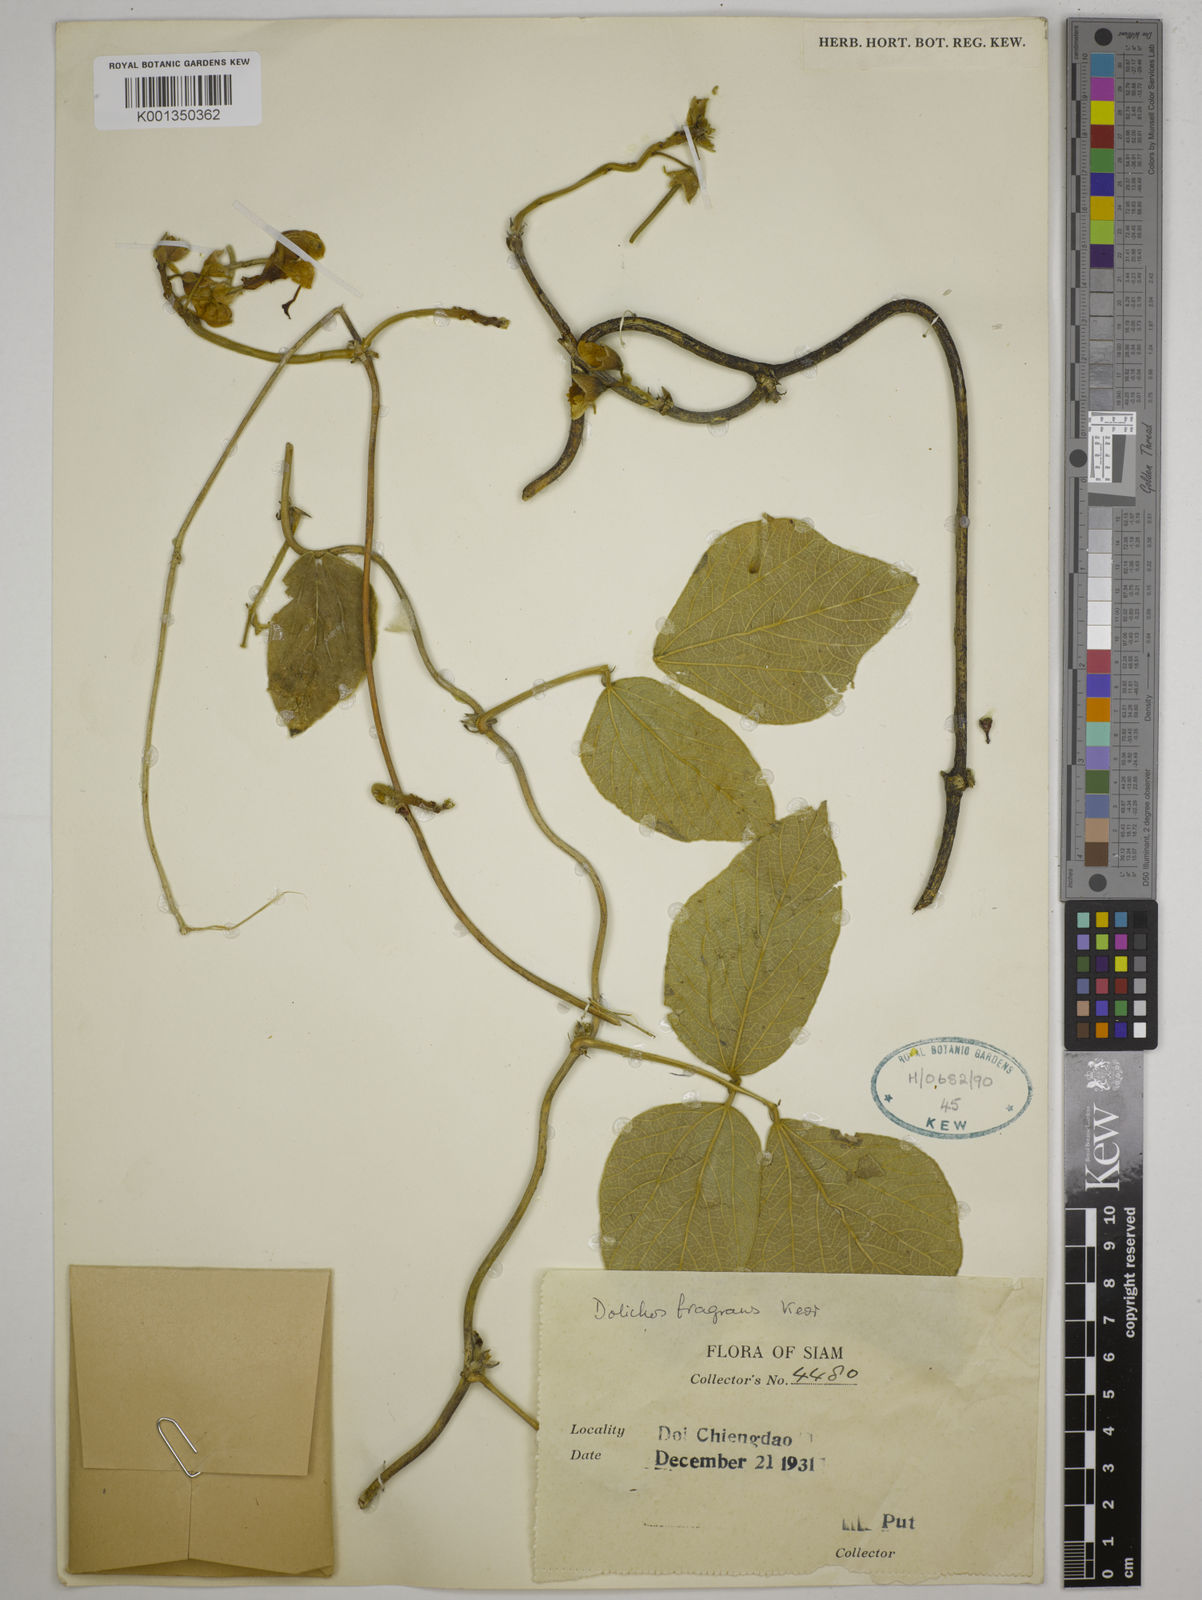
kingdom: Plantae
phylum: Tracheophyta
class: Magnoliopsida
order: Fabales
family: Fabaceae
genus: Dolichos
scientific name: Dolichos fragrans
